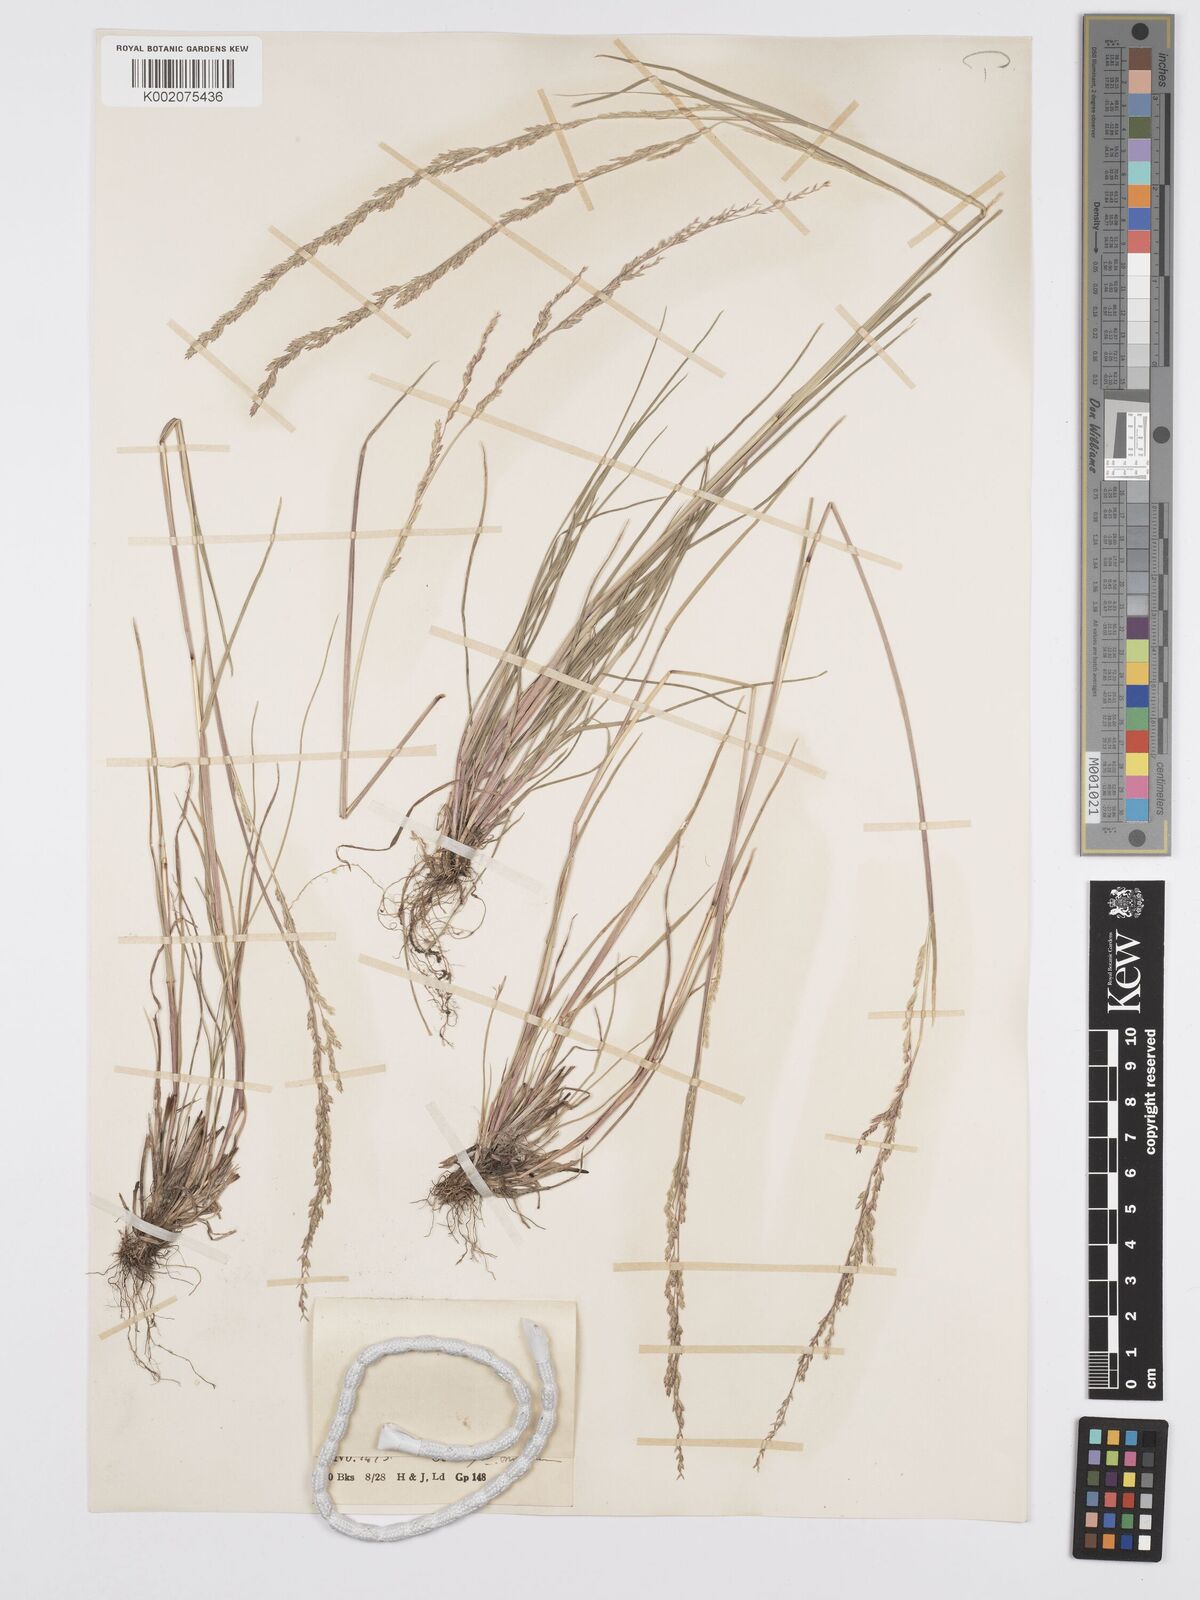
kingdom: Plantae
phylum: Tracheophyta
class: Liliopsida
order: Poales
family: Poaceae
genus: Poa
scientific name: Poa
